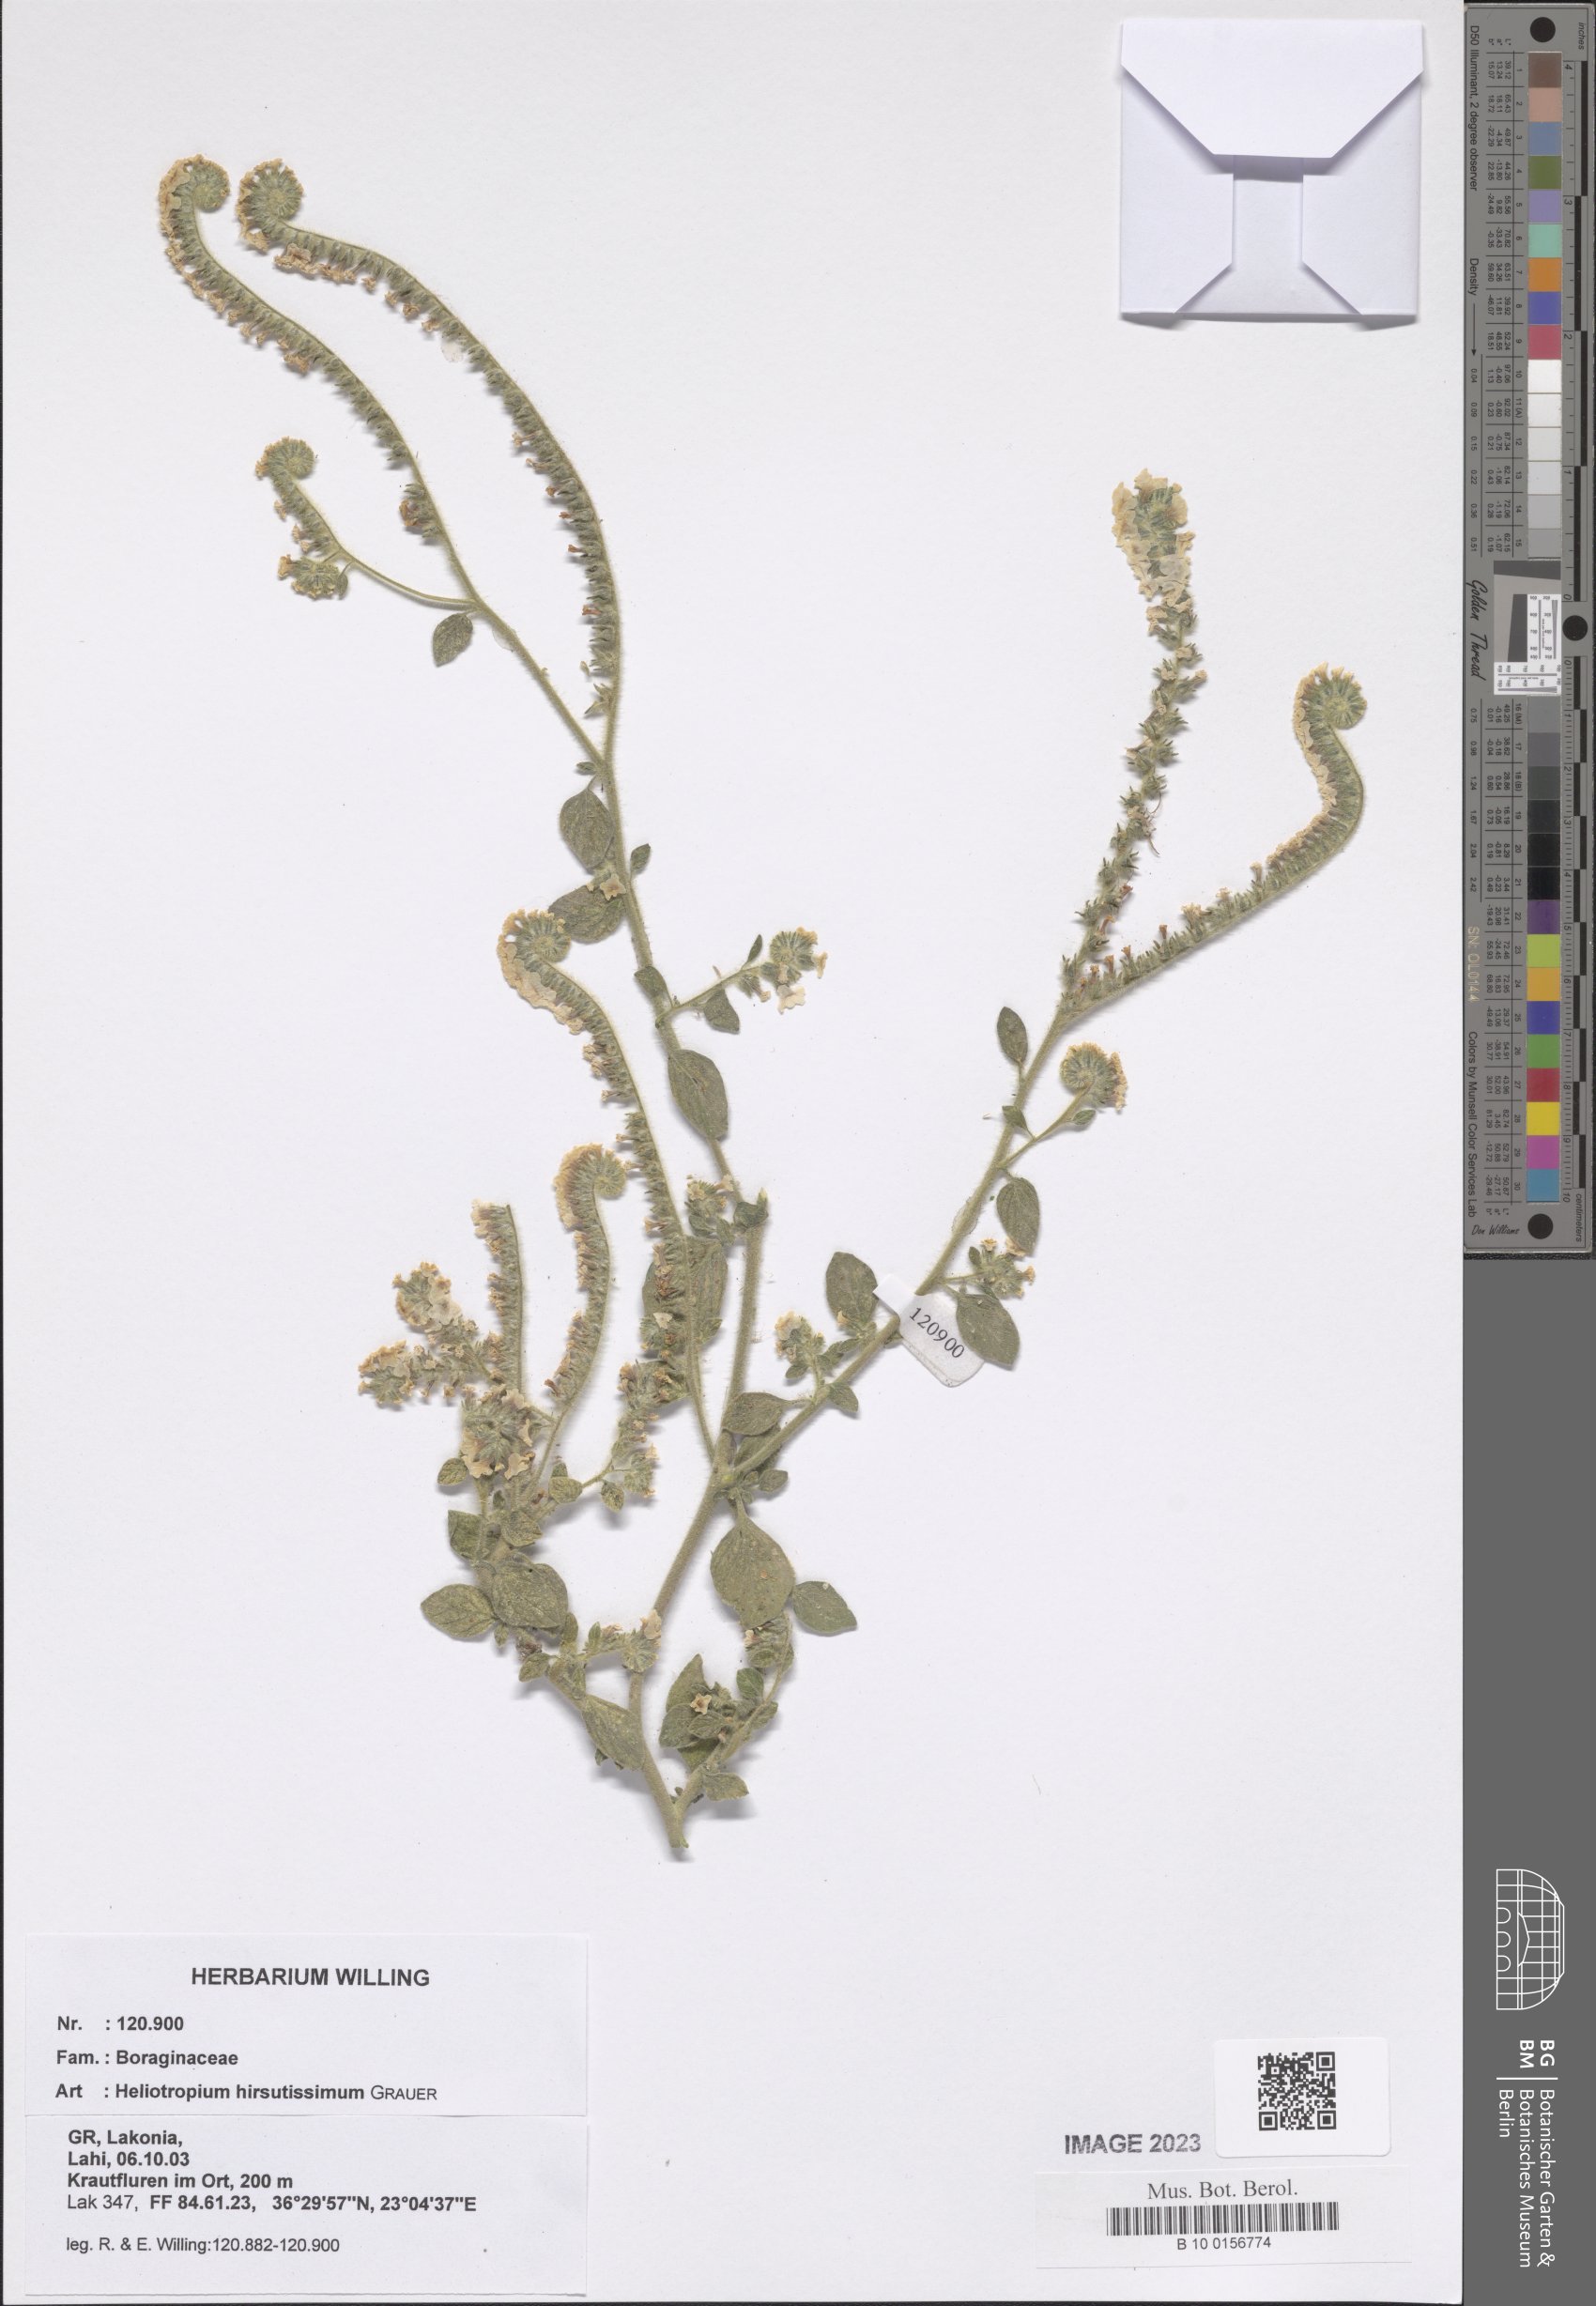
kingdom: Plantae
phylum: Tracheophyta
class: Magnoliopsida
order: Boraginales
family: Heliotropiaceae
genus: Heliotropium
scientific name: Heliotropium hirsutissimum
